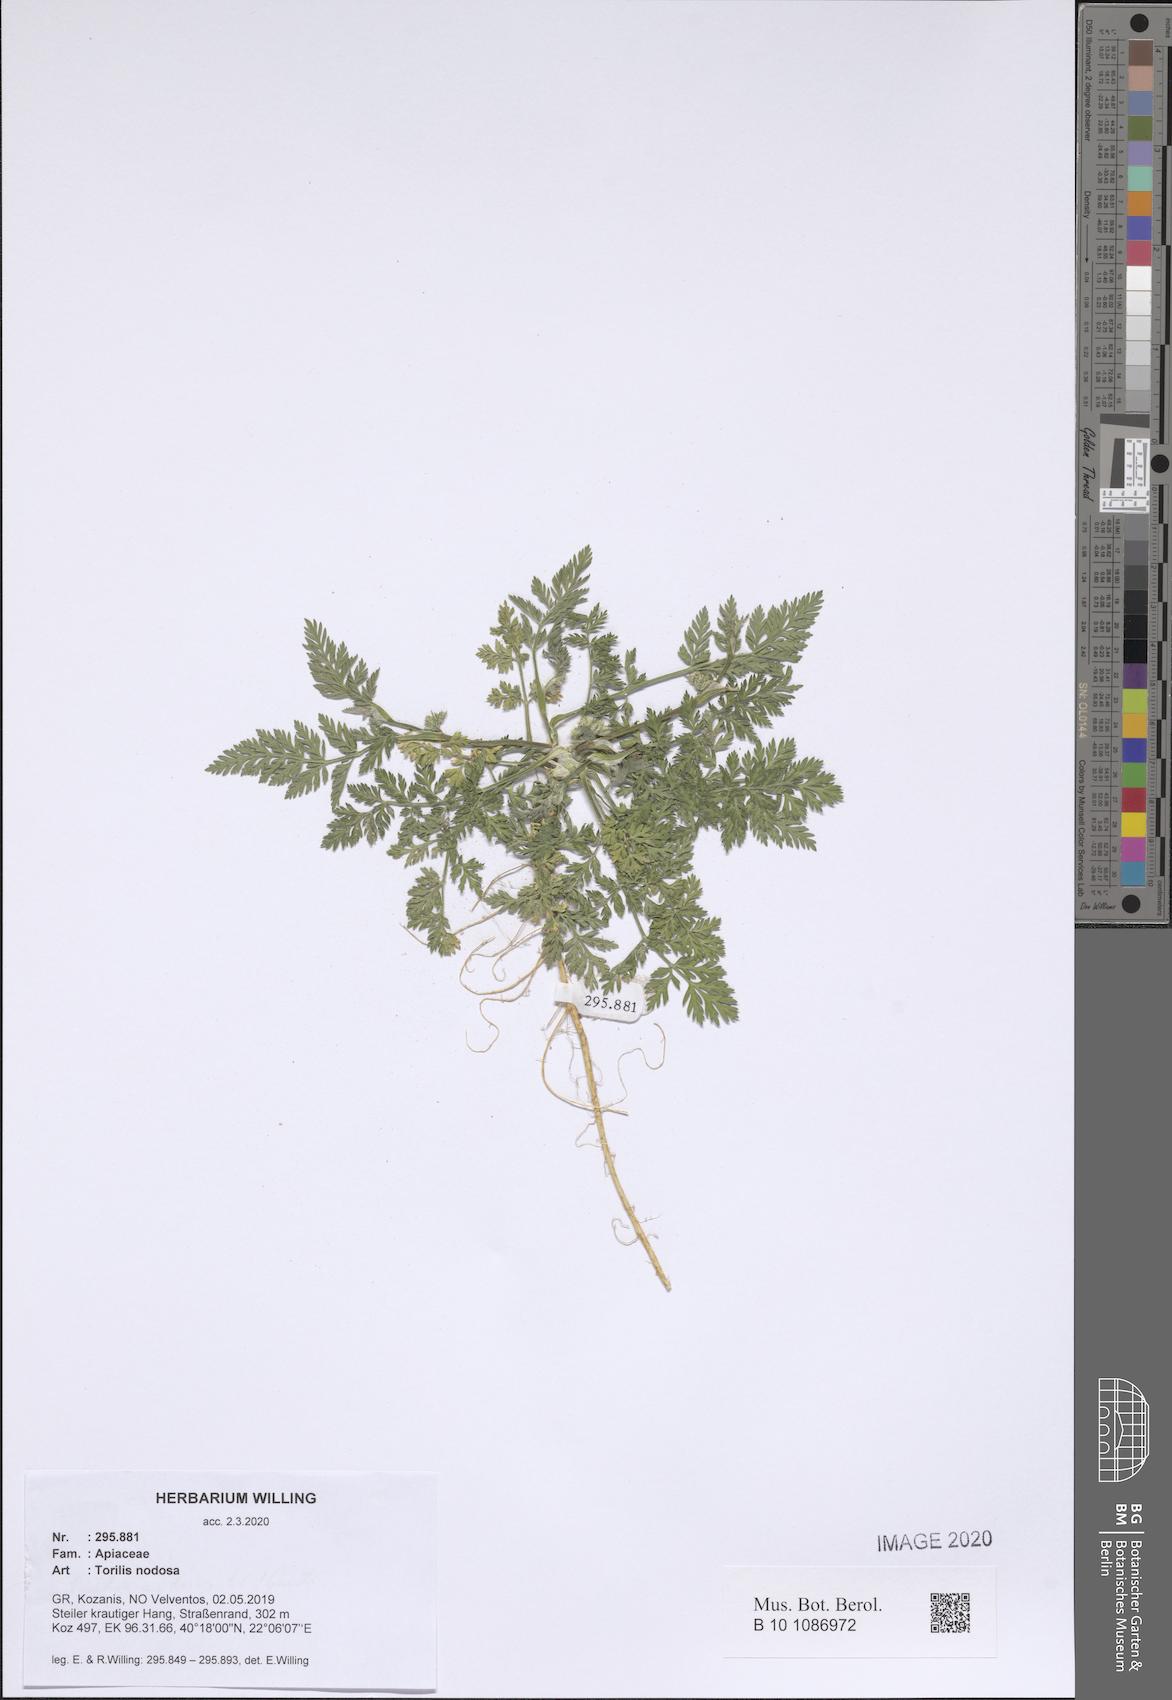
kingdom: Plantae
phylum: Tracheophyta
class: Magnoliopsida
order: Apiales
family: Apiaceae
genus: Torilis
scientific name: Torilis nodosa
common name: Knotted hedge-parsley
